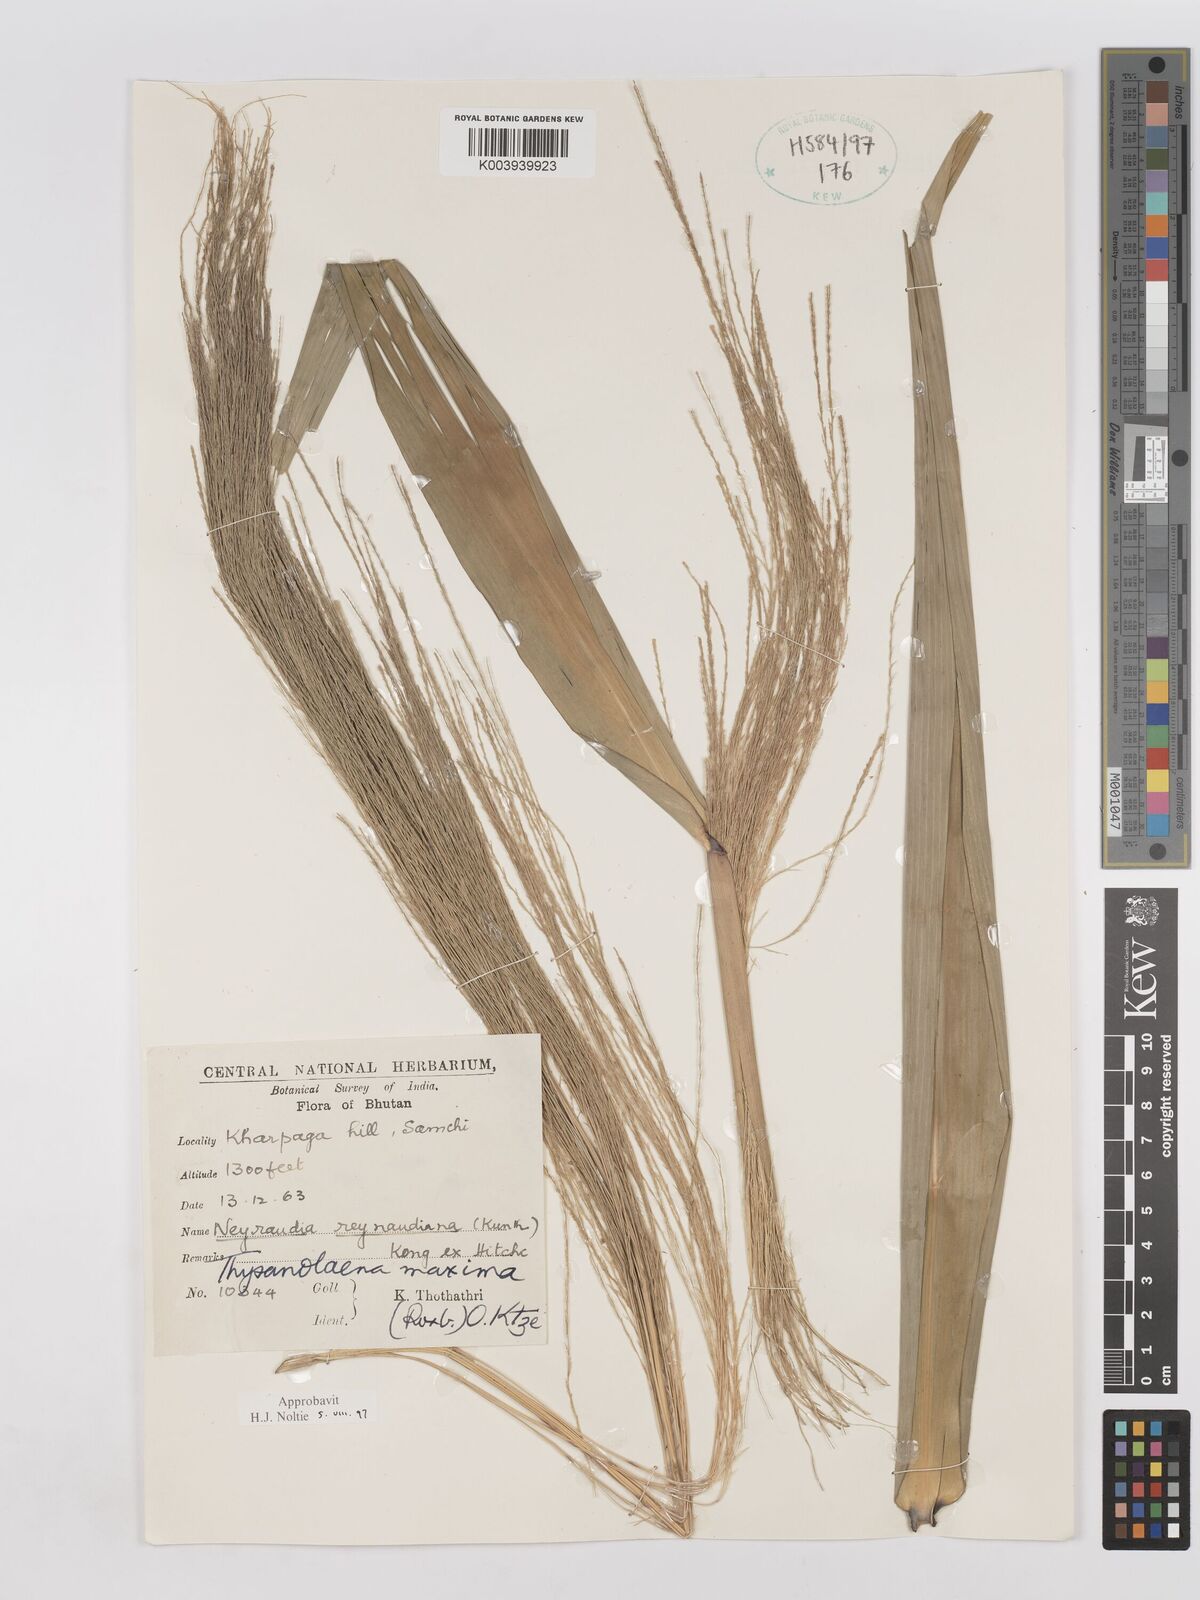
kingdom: Plantae
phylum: Tracheophyta
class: Liliopsida
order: Poales
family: Poaceae
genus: Thysanolaena
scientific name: Thysanolaena latifolia
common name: Tiger grass
